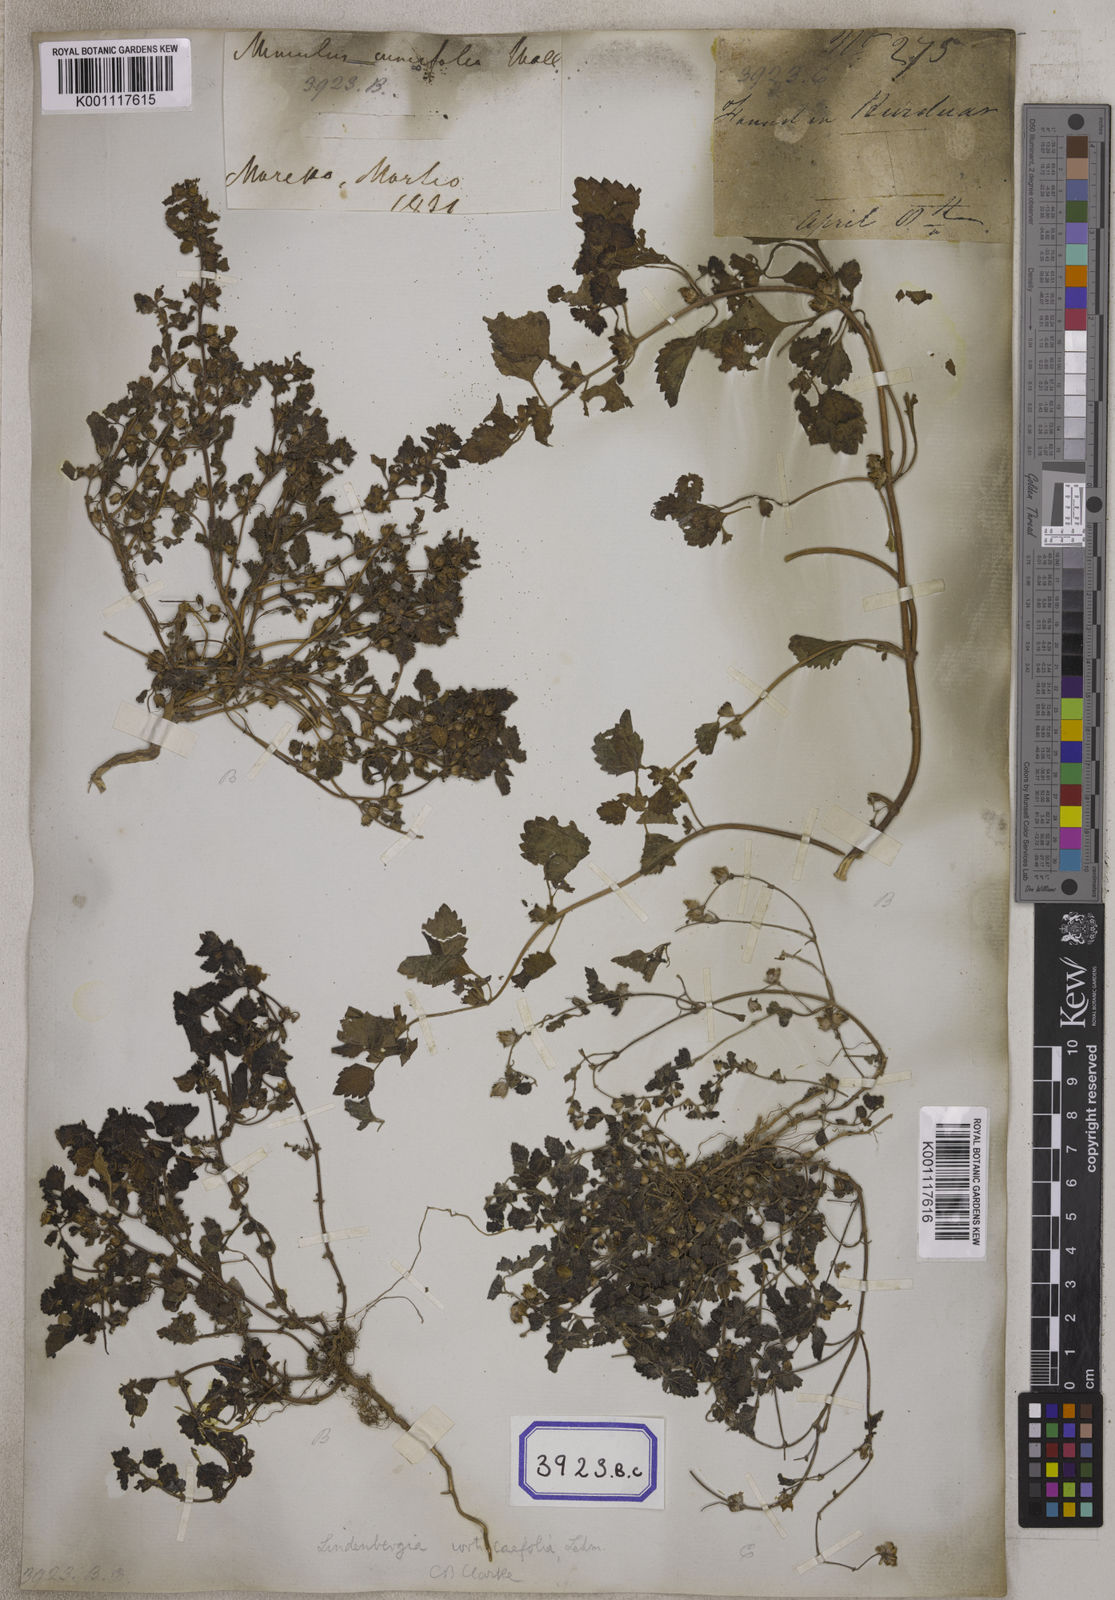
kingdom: Plantae
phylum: Tracheophyta
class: Magnoliopsida
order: Lamiales
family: Orobanchaceae
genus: Lindenbergia
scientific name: Lindenbergia muraria
